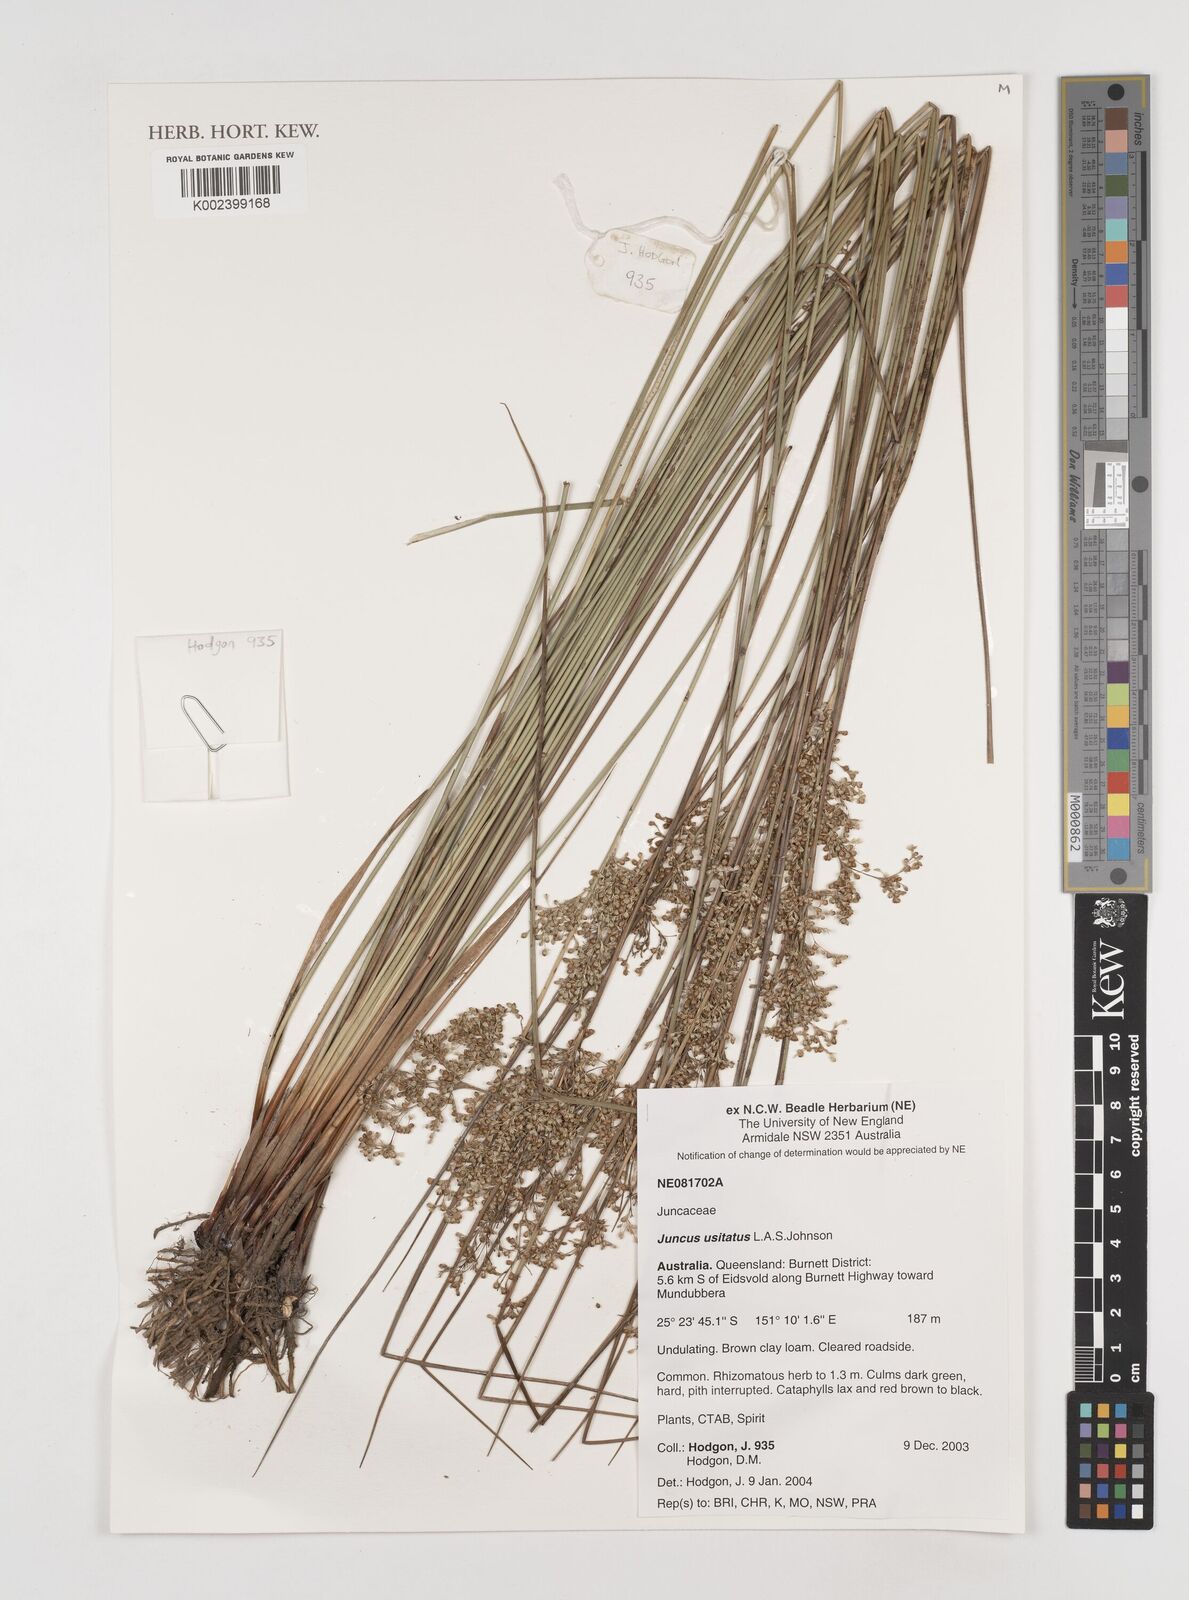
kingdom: Plantae
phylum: Tracheophyta
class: Liliopsida
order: Poales
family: Juncaceae
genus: Juncus
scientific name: Juncus usitatus
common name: Rush
